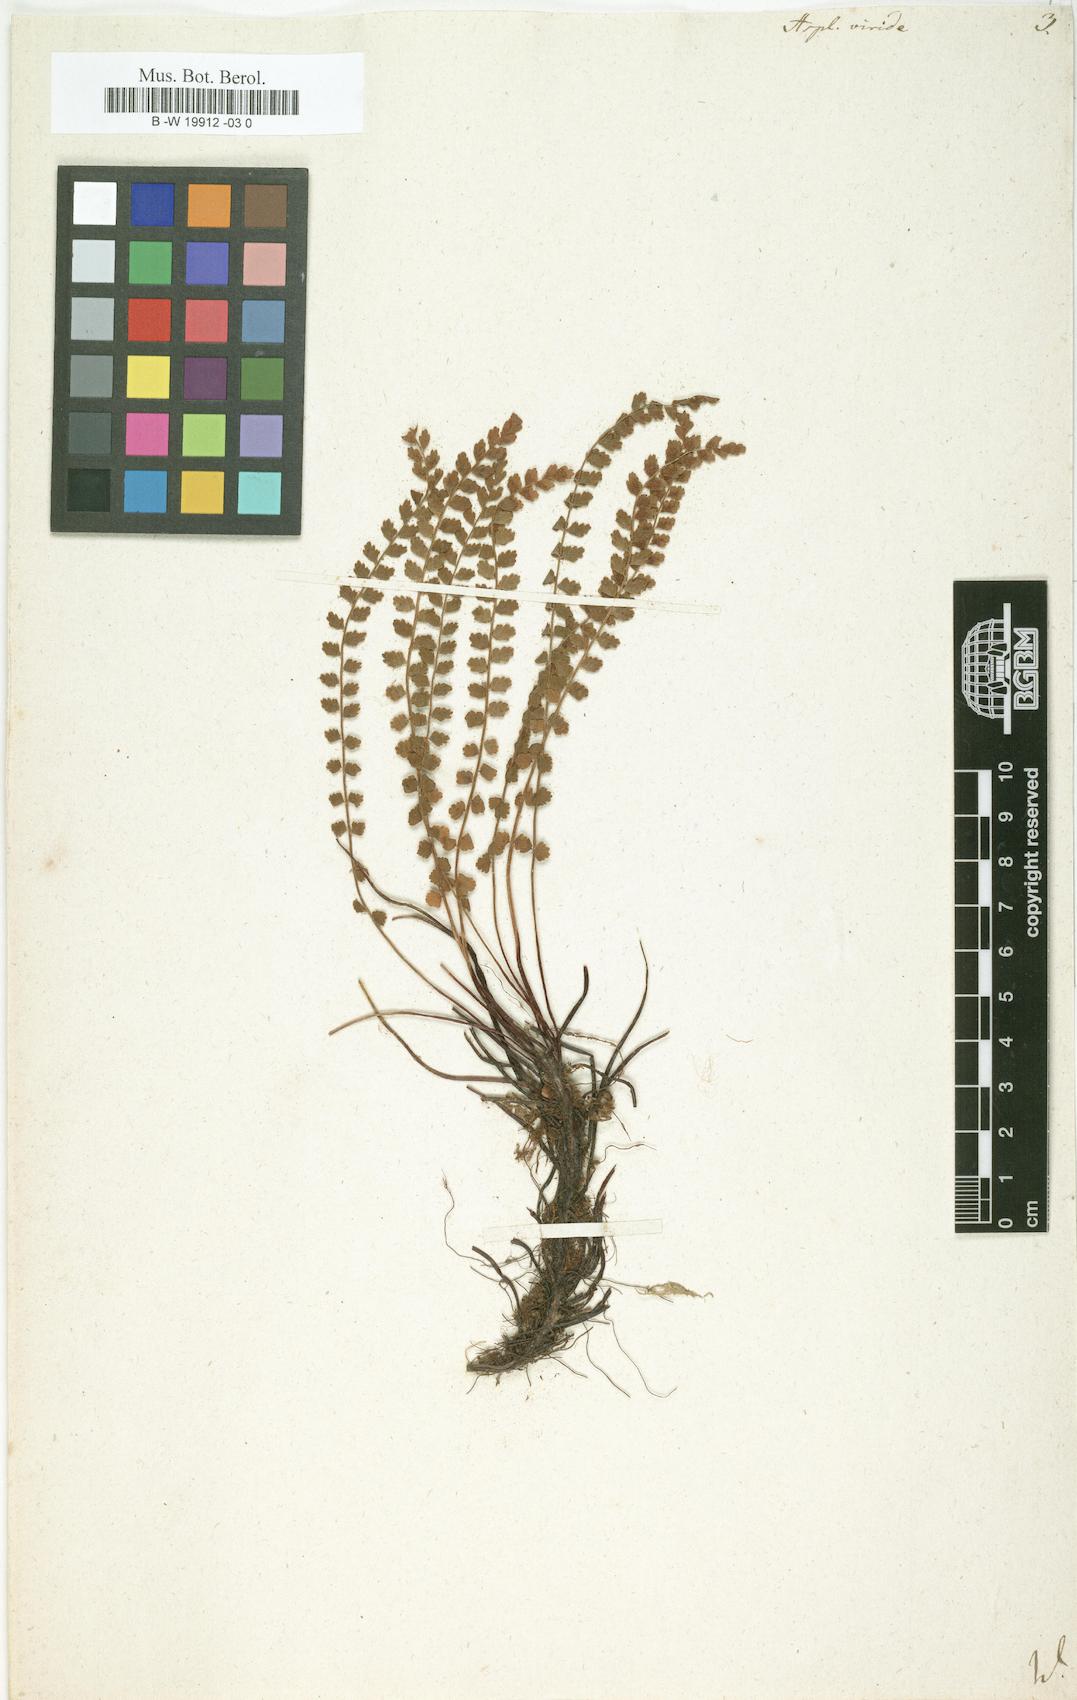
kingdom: Plantae
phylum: Tracheophyta
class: Polypodiopsida
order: Polypodiales
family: Aspleniaceae
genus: Asplenium
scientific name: Asplenium viride
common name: Green spleenwort
